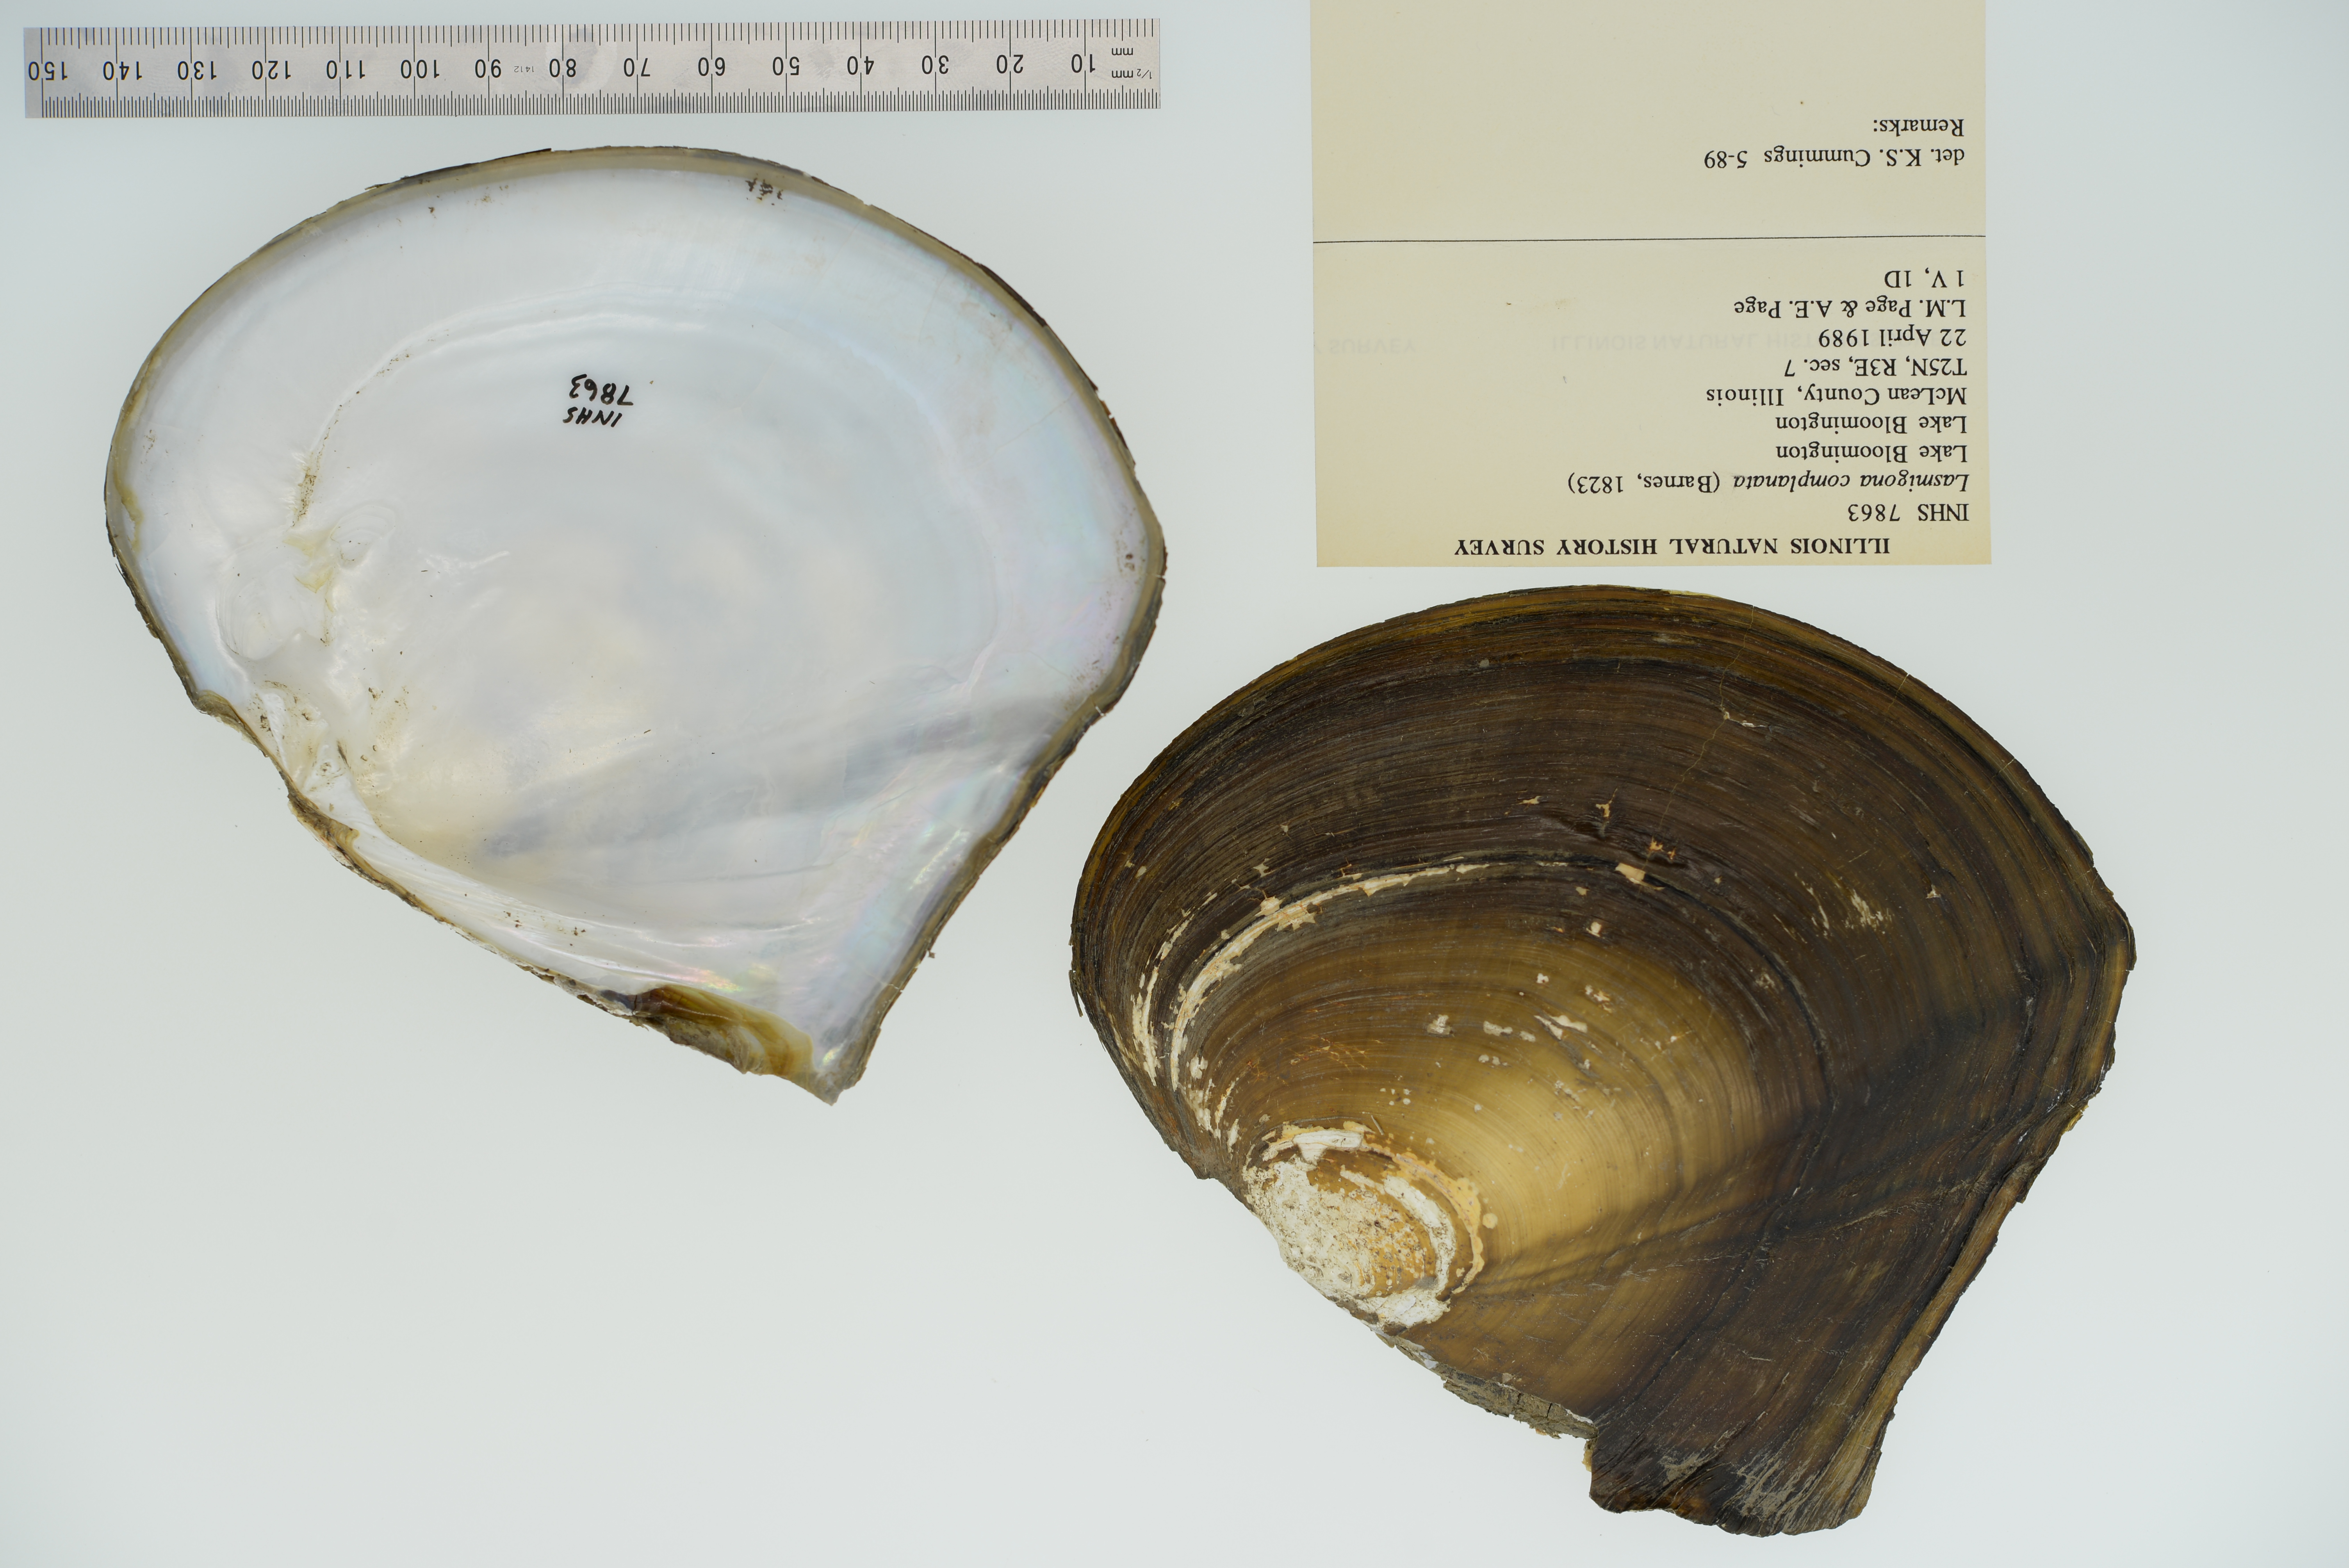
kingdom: Animalia
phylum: Mollusca
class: Bivalvia
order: Unionida
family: Unionidae
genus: Lasmigona
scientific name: Lasmigona complanata
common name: White heelsplitter
